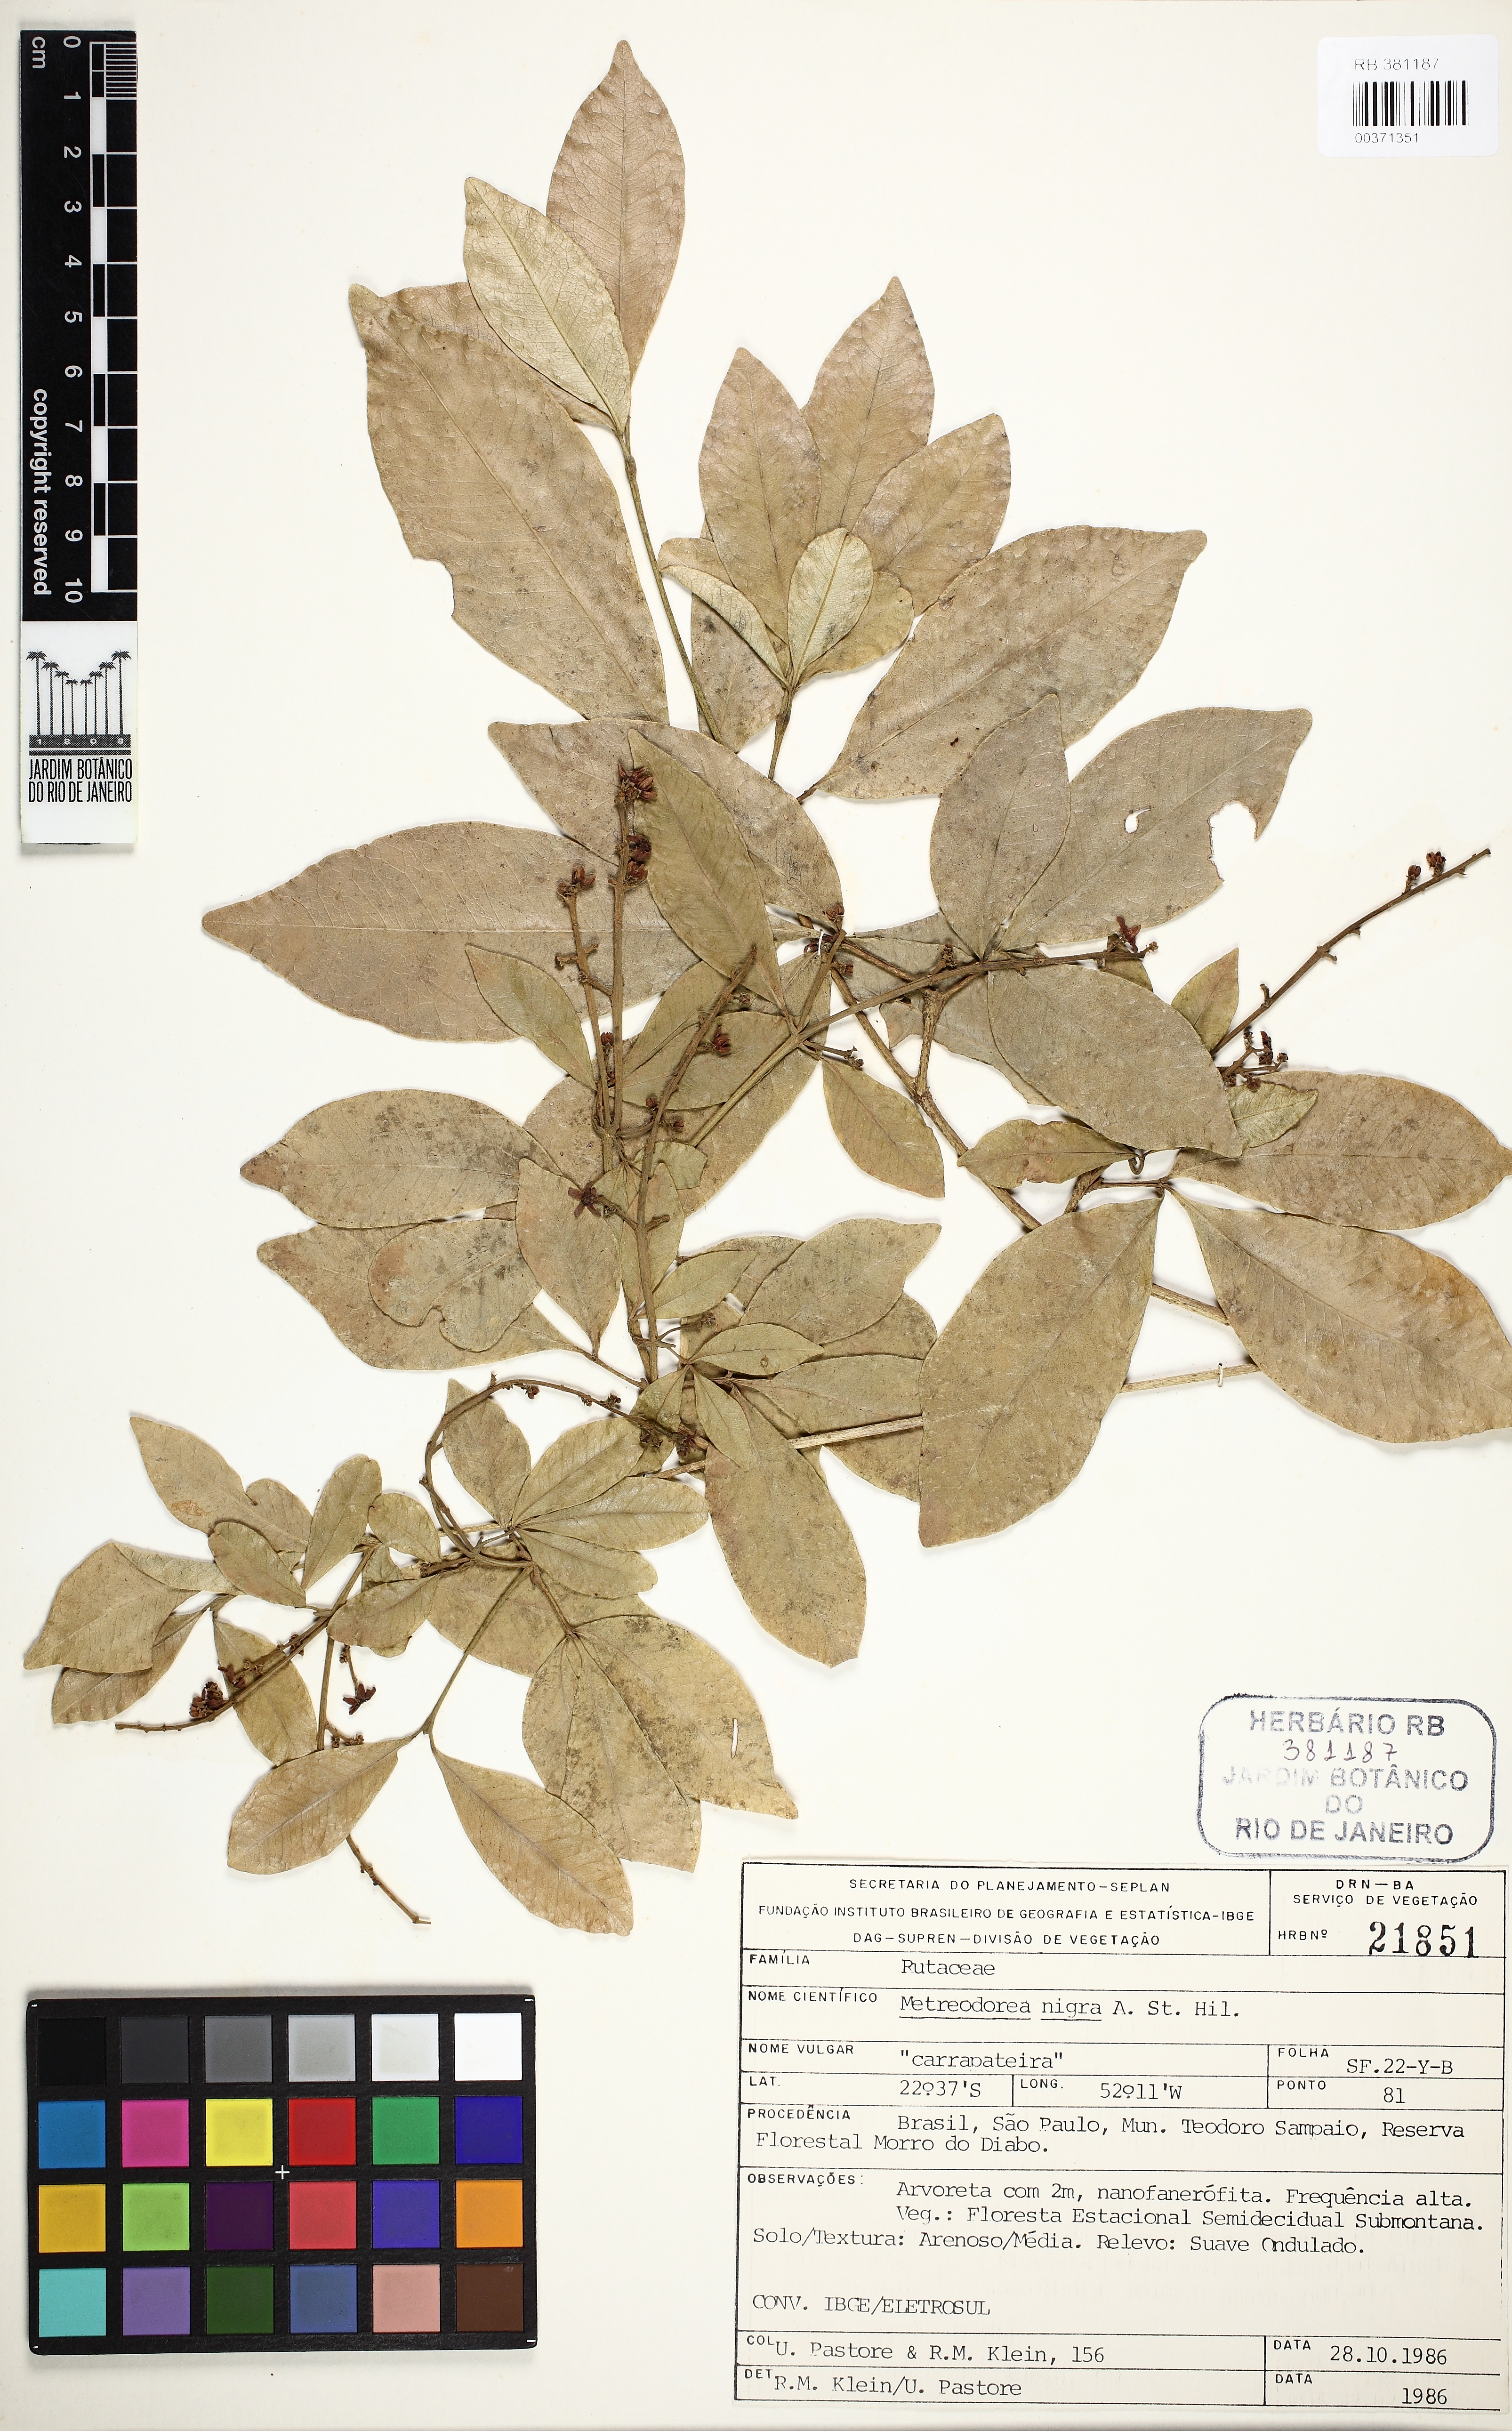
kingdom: Plantae
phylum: Tracheophyta
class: Magnoliopsida
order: Sapindales
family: Rutaceae
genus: Metrodorea
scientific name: Metrodorea nigra
